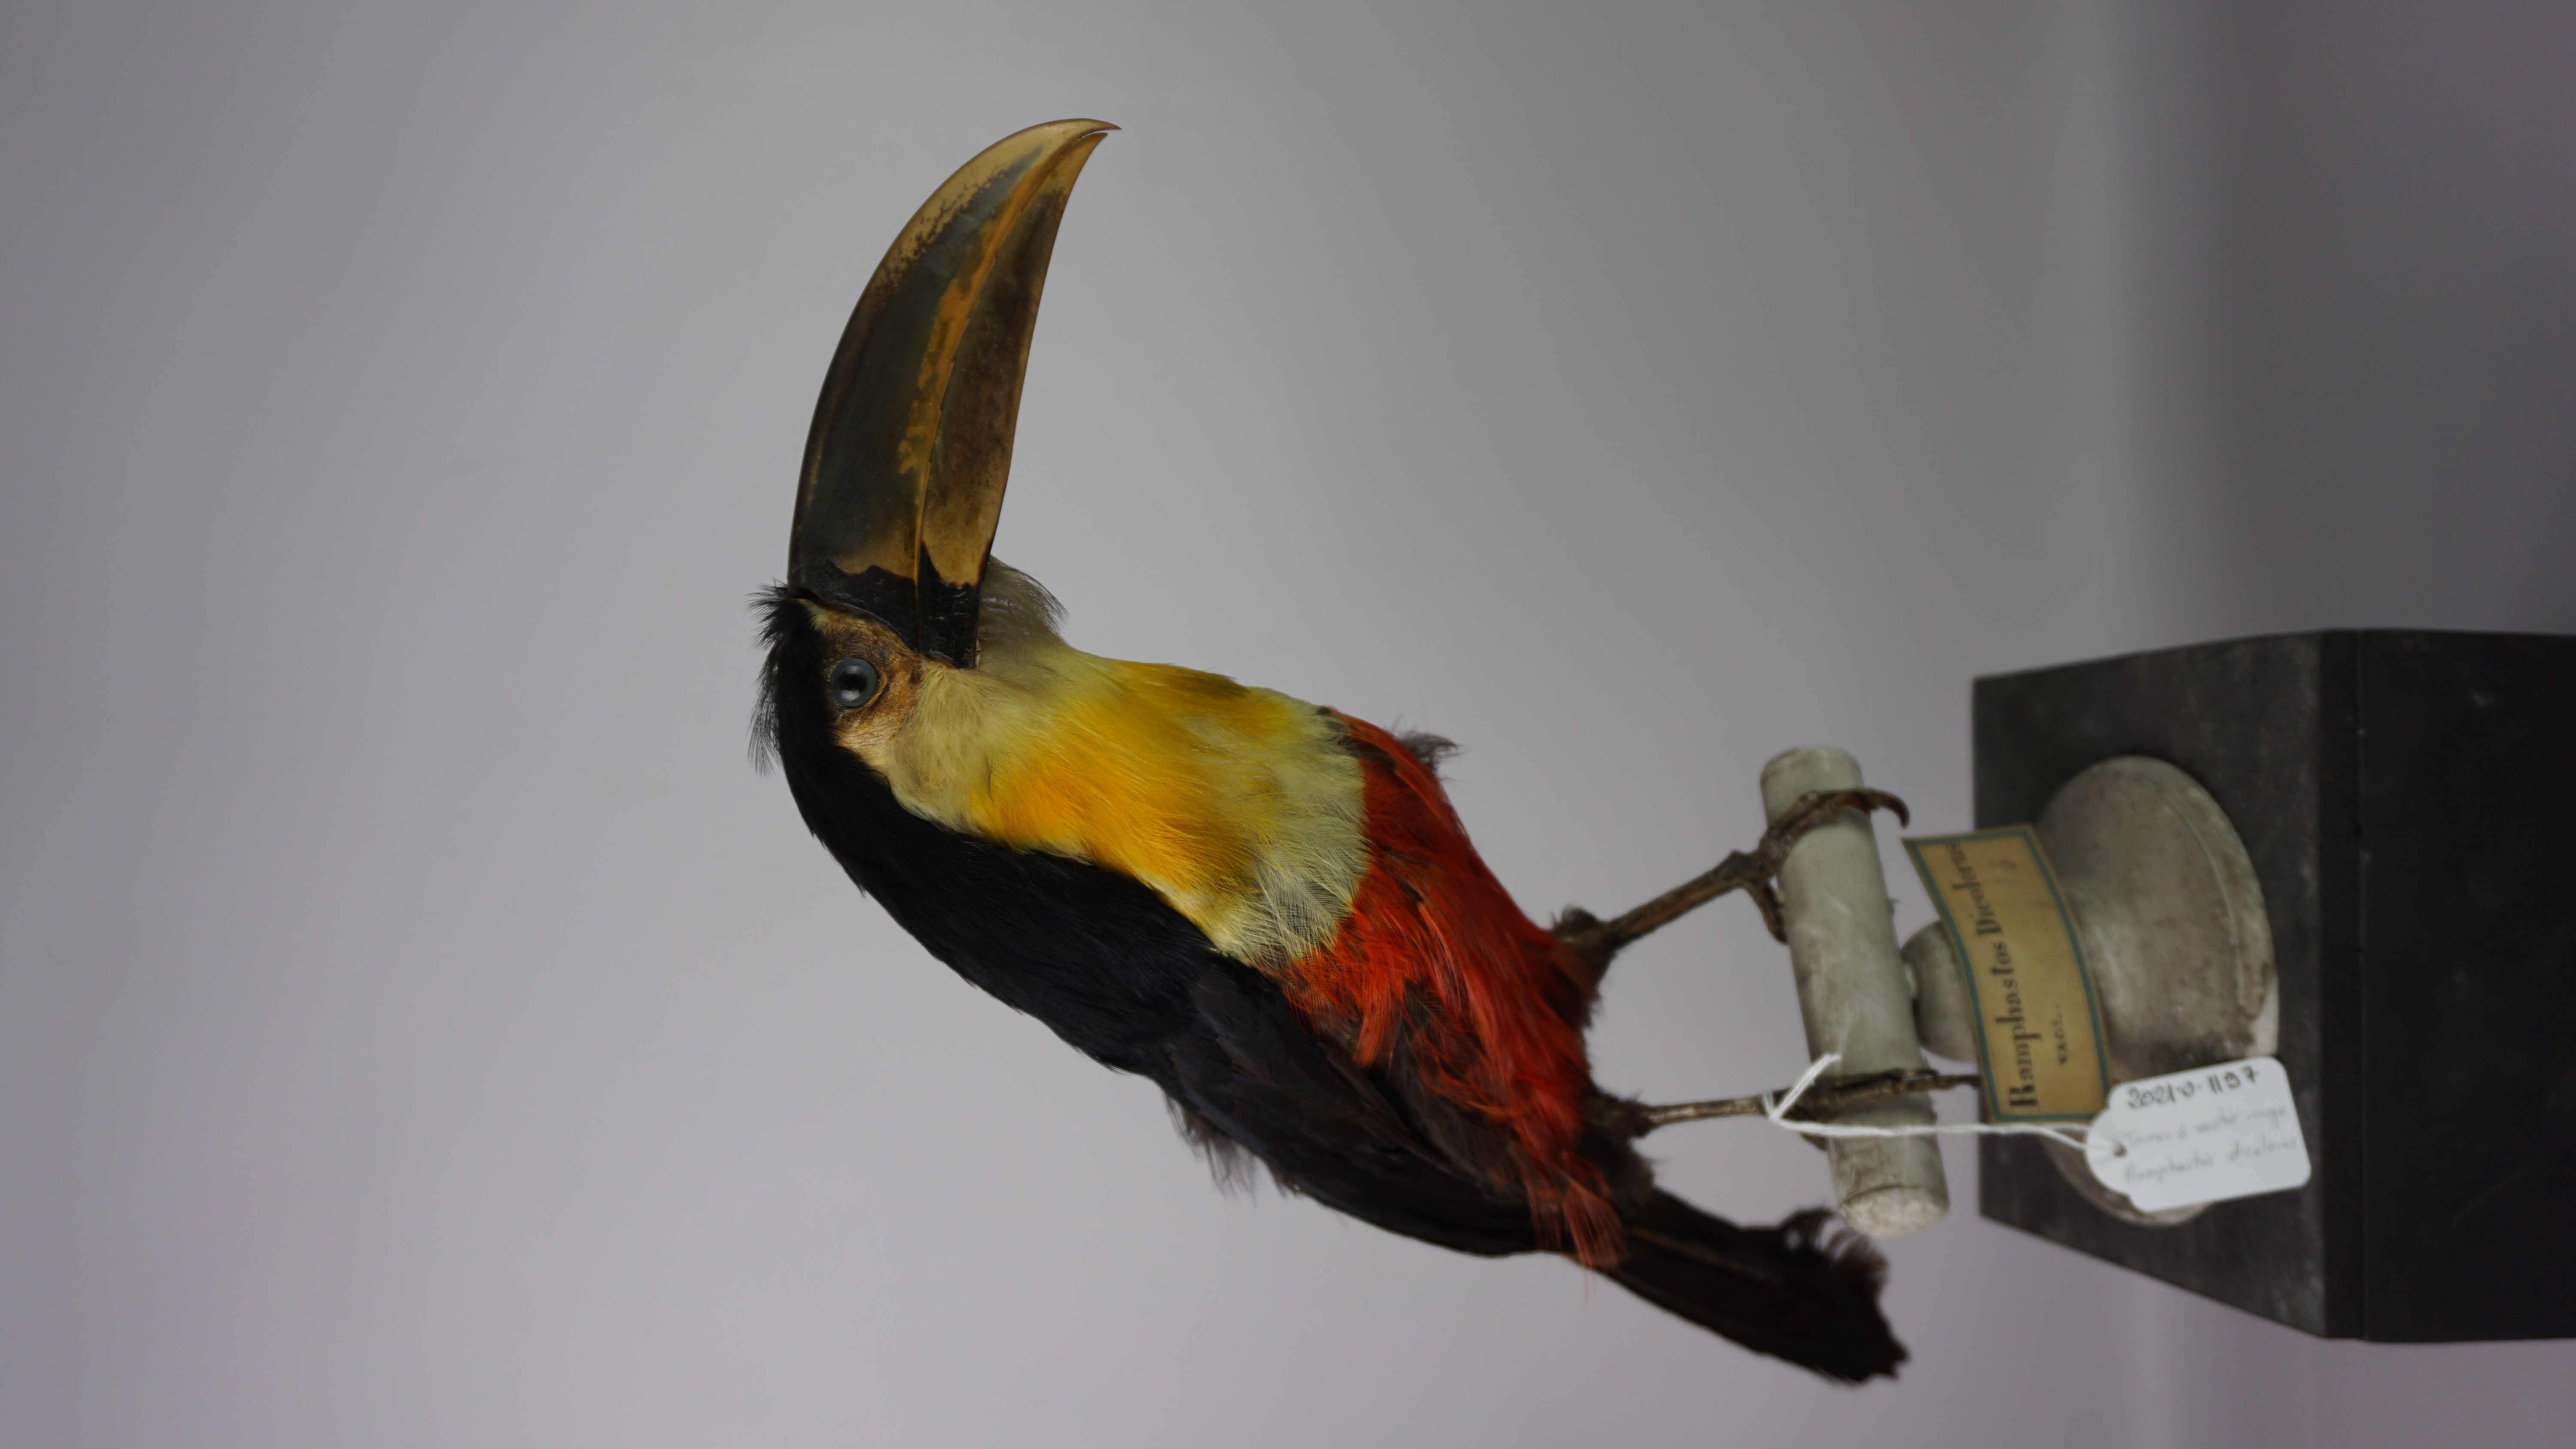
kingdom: Animalia
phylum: Chordata
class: Aves
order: Piciformes
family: Ramphastidae
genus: Ramphastos
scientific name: Ramphastos dicolorus
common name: Green-billed toucan
